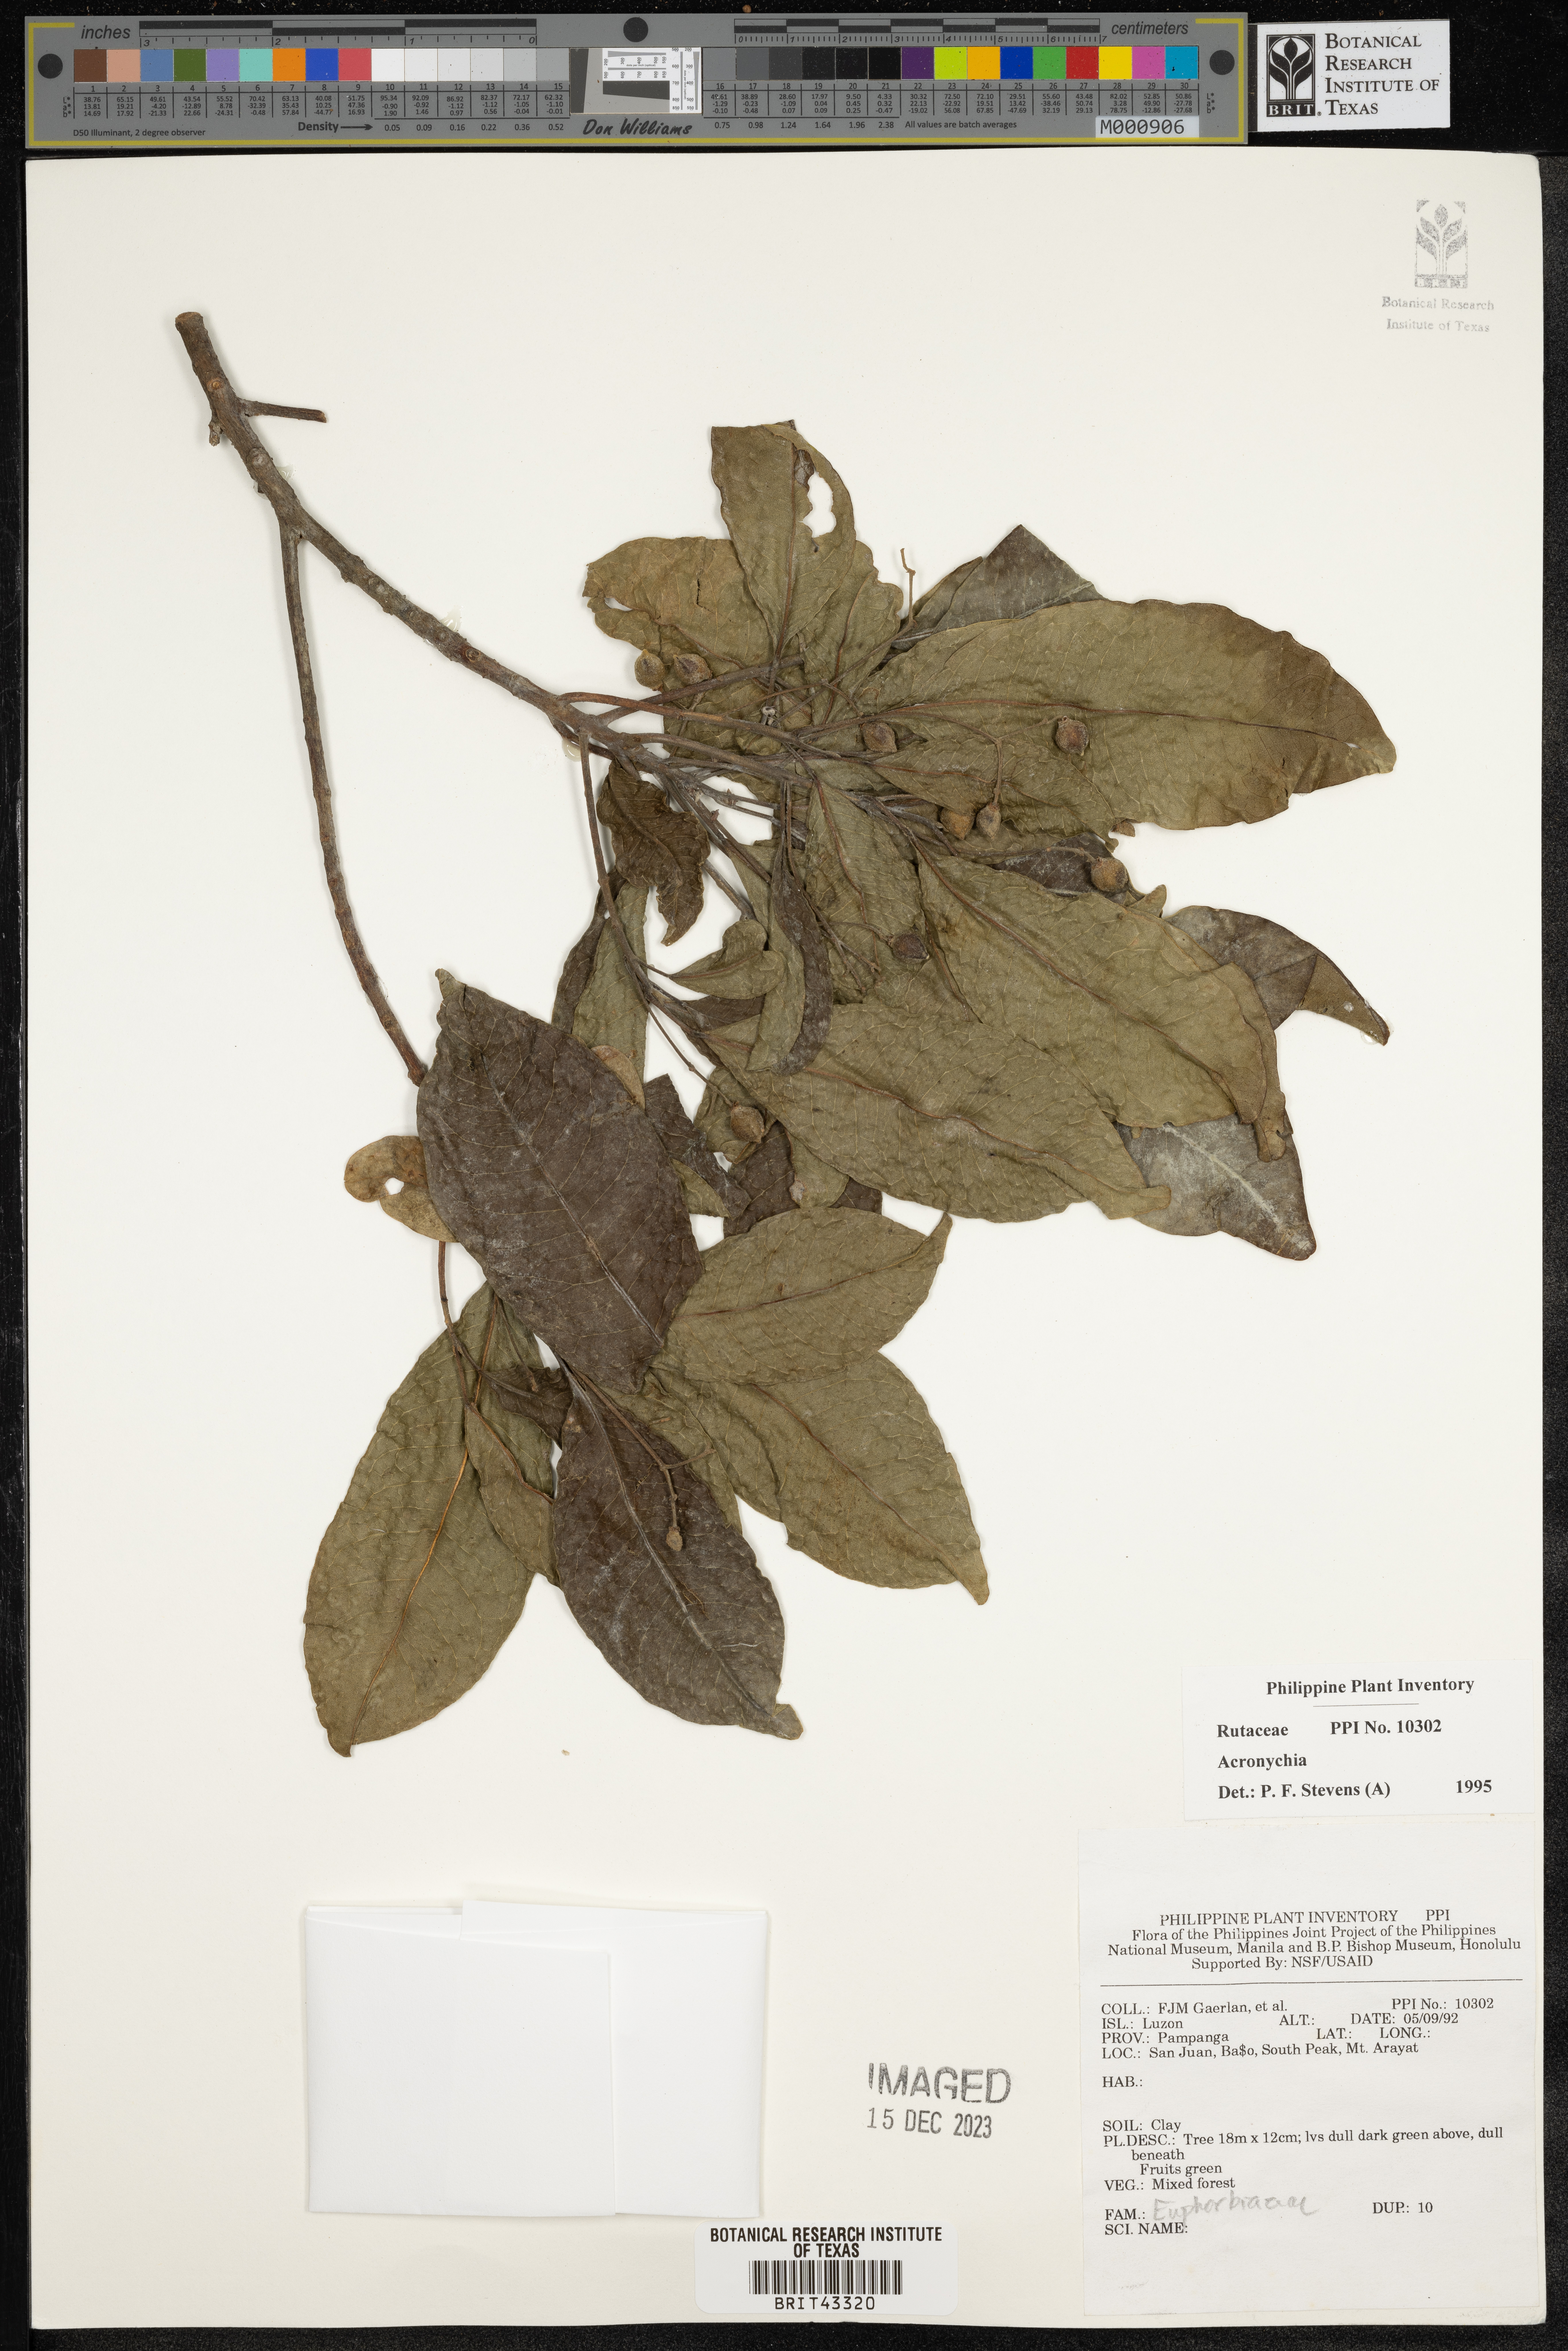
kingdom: Plantae
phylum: Tracheophyta
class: Polypodiopsida
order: Osmundales
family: Osmundaceae
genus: Osmunda
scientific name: Osmunda regalis
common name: Royal fern
